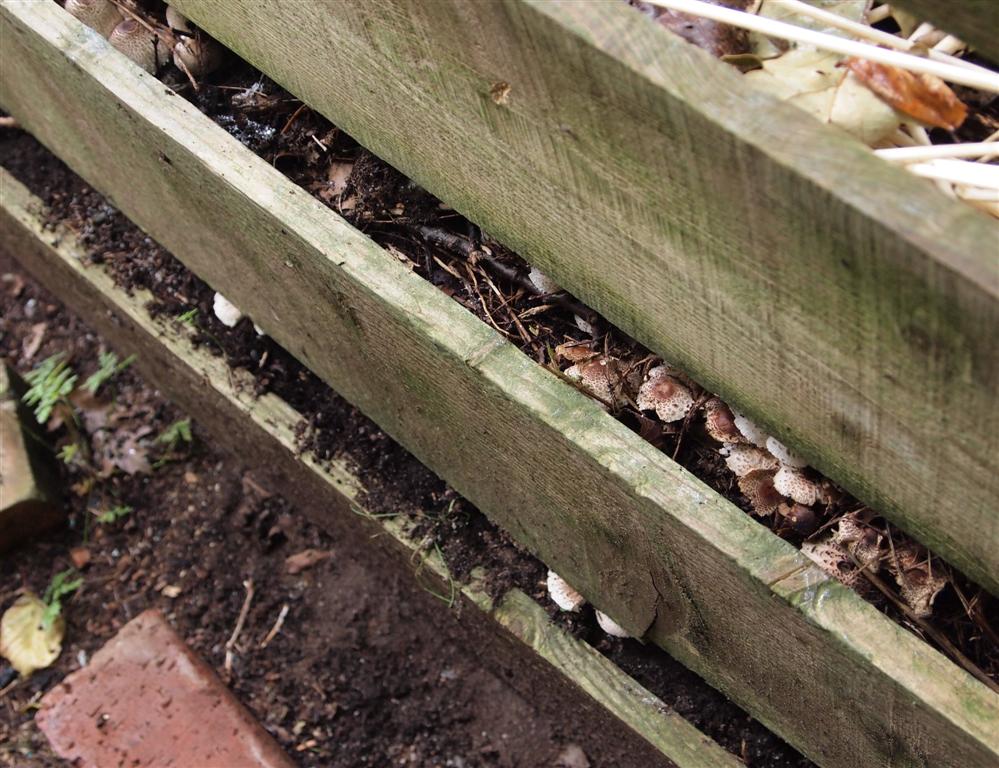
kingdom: Fungi
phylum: Basidiomycota
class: Agaricomycetes
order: Agaricales
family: Agaricaceae
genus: Lepiota
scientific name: Lepiota lilacea
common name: lillabrun parasolhat
